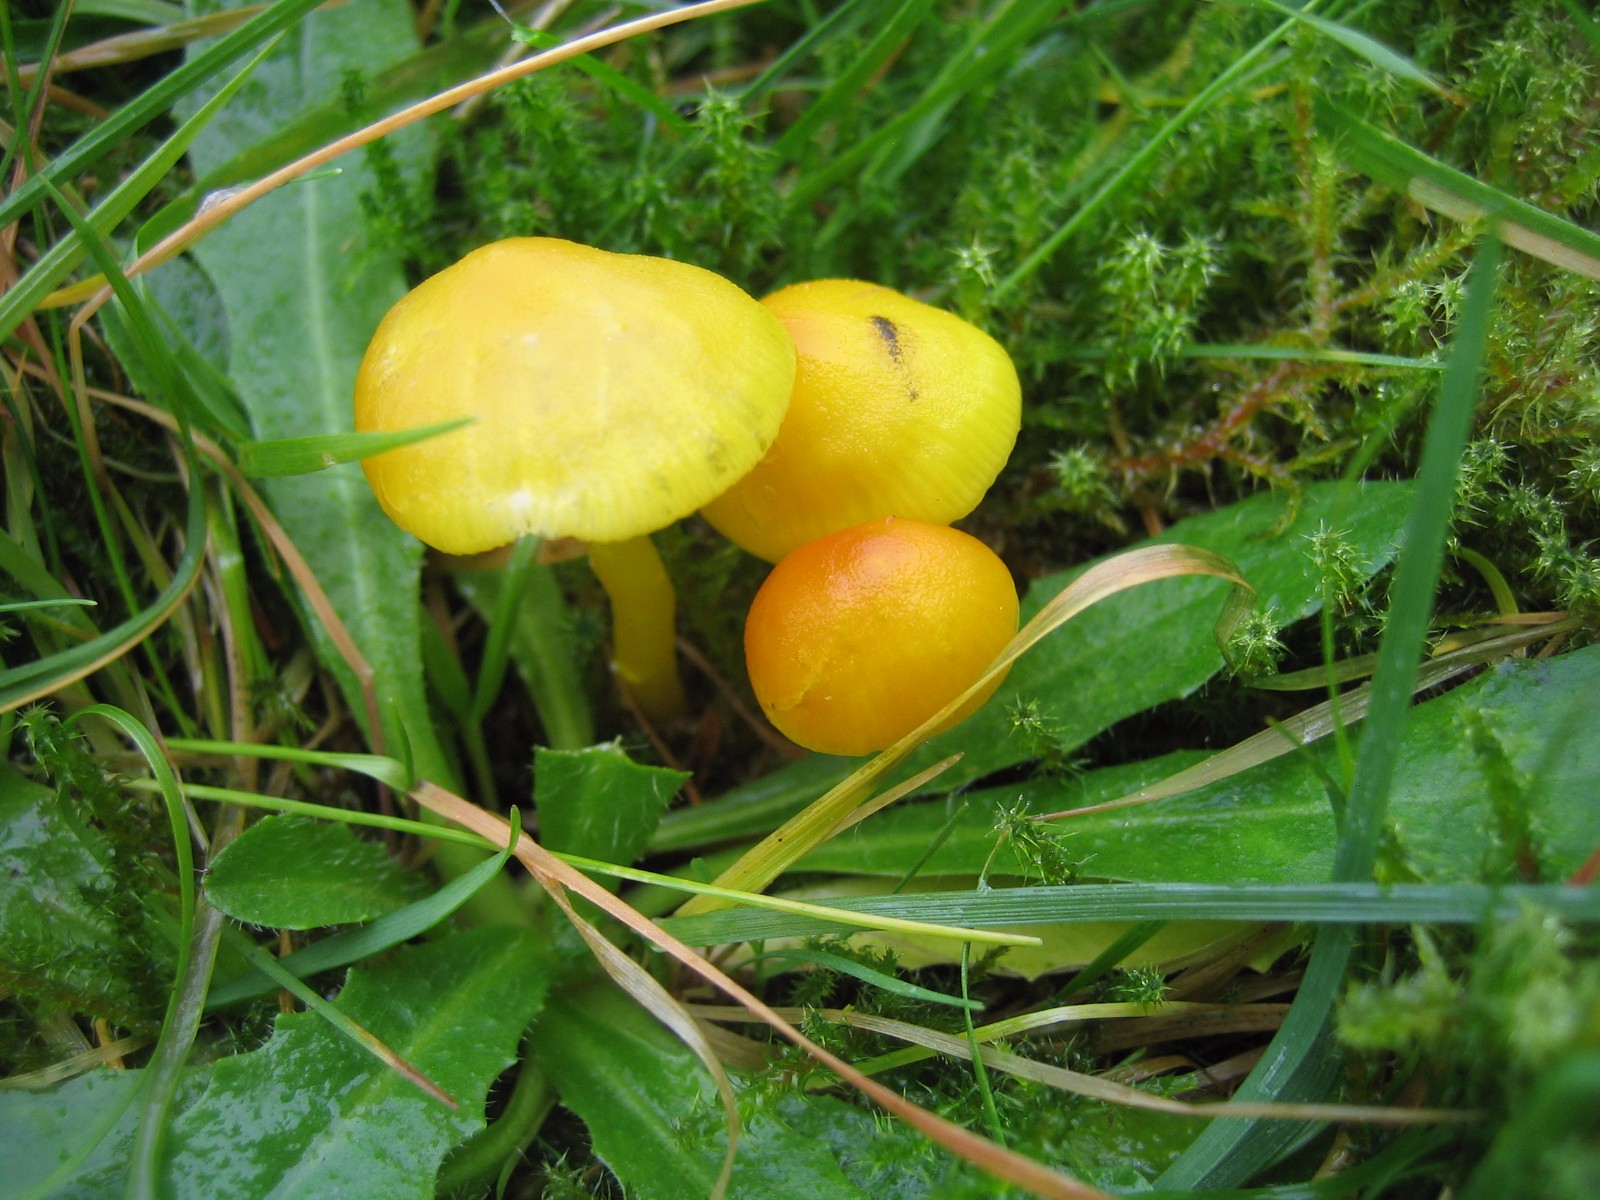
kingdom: Fungi
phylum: Basidiomycota
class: Agaricomycetes
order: Agaricales
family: Hygrophoraceae
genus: Hygrocybe
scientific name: Hygrocybe ceracea
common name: voksgul vokshat
